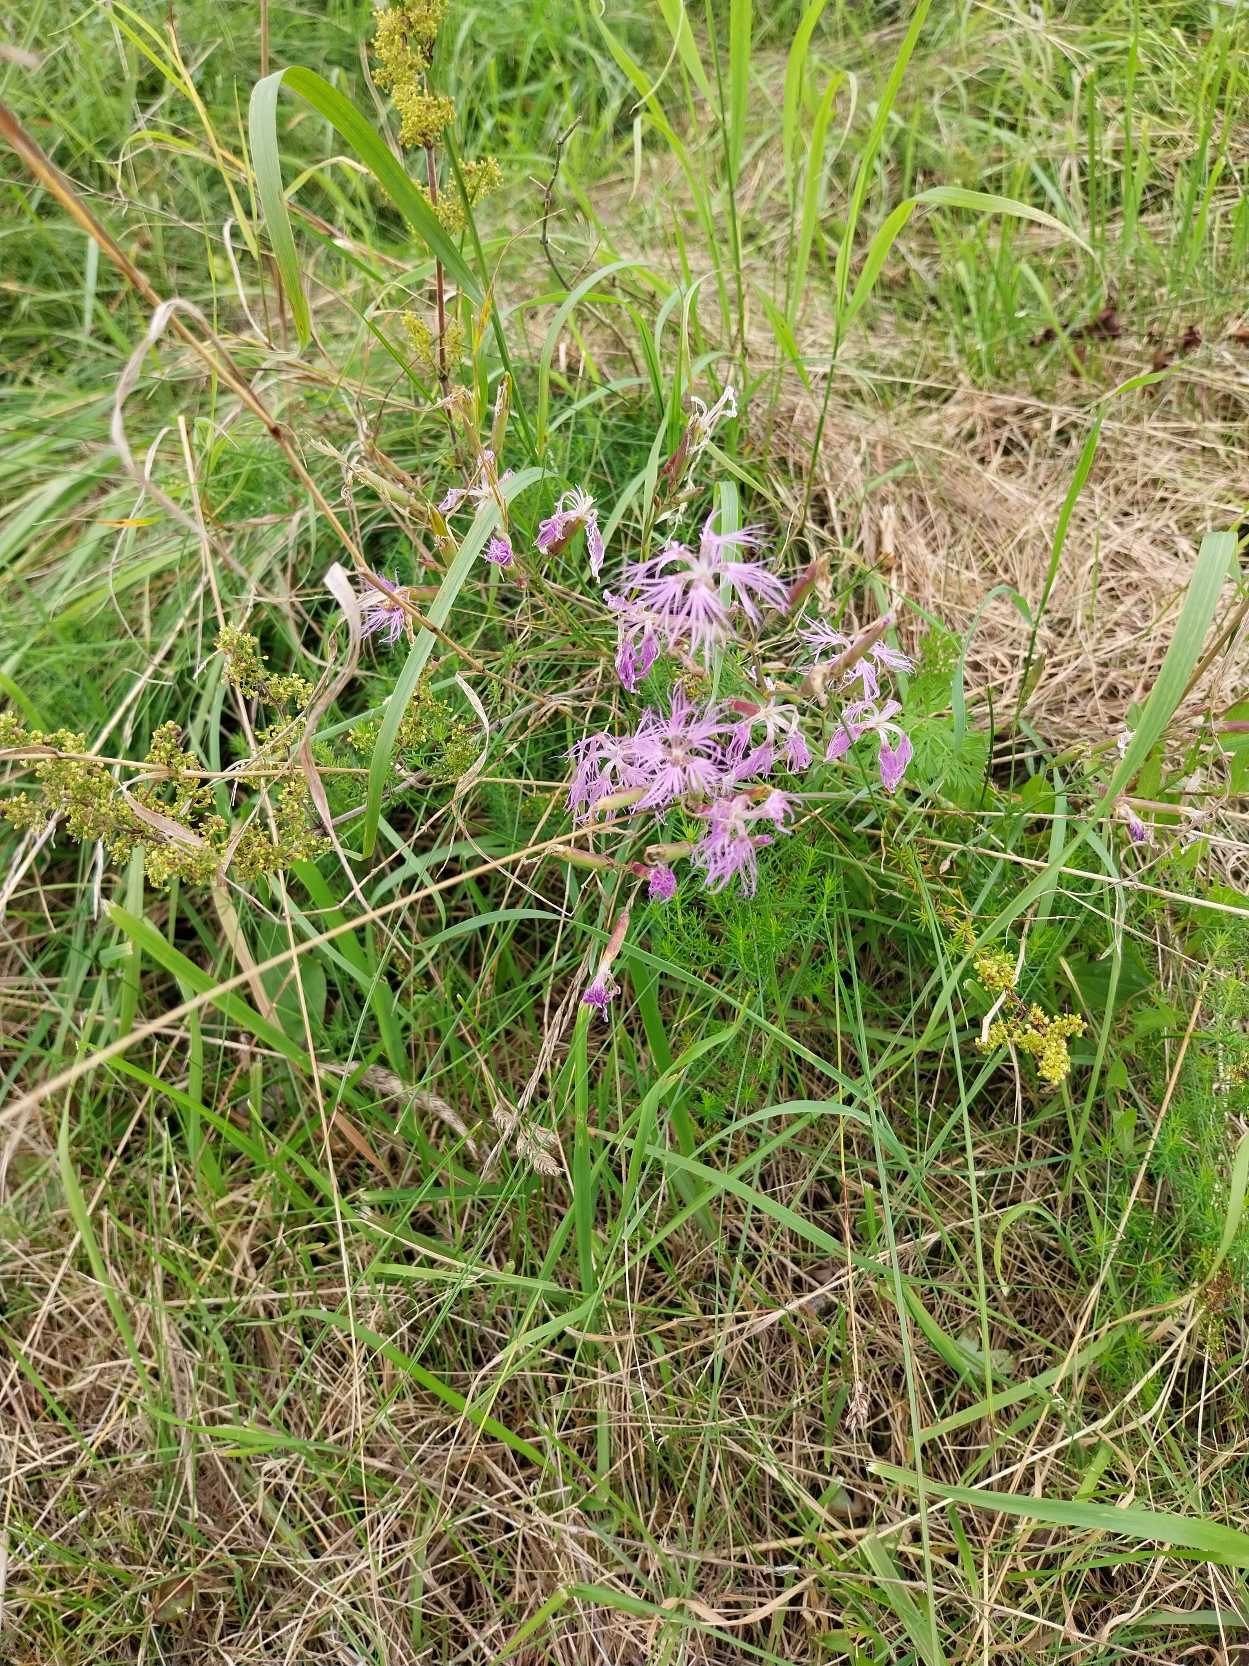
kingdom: Plantae
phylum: Tracheophyta
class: Magnoliopsida
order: Caryophyllales
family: Caryophyllaceae
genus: Dianthus
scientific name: Dianthus superbus
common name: Strand-nellike
